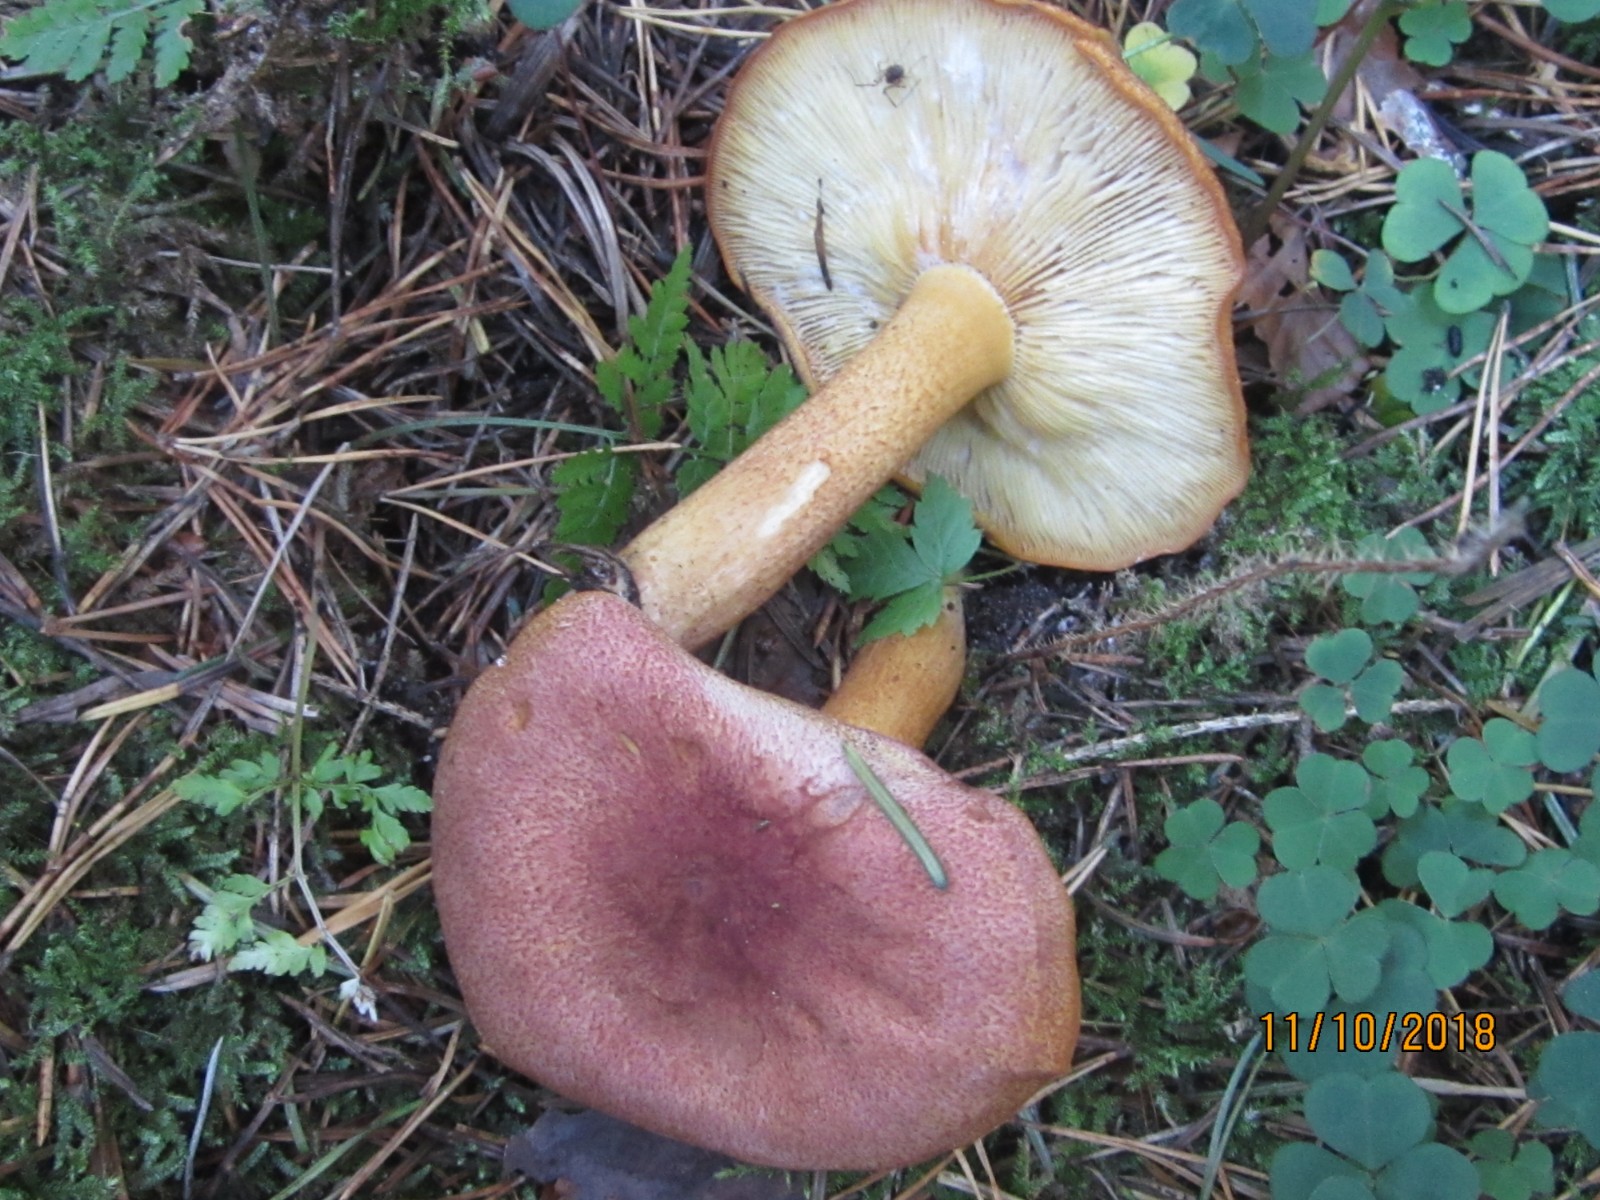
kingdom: Fungi
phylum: Basidiomycota
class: Agaricomycetes
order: Agaricales
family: Tricholomataceae
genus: Tricholomopsis
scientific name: Tricholomopsis rutilans
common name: purpur-væbnerhat
